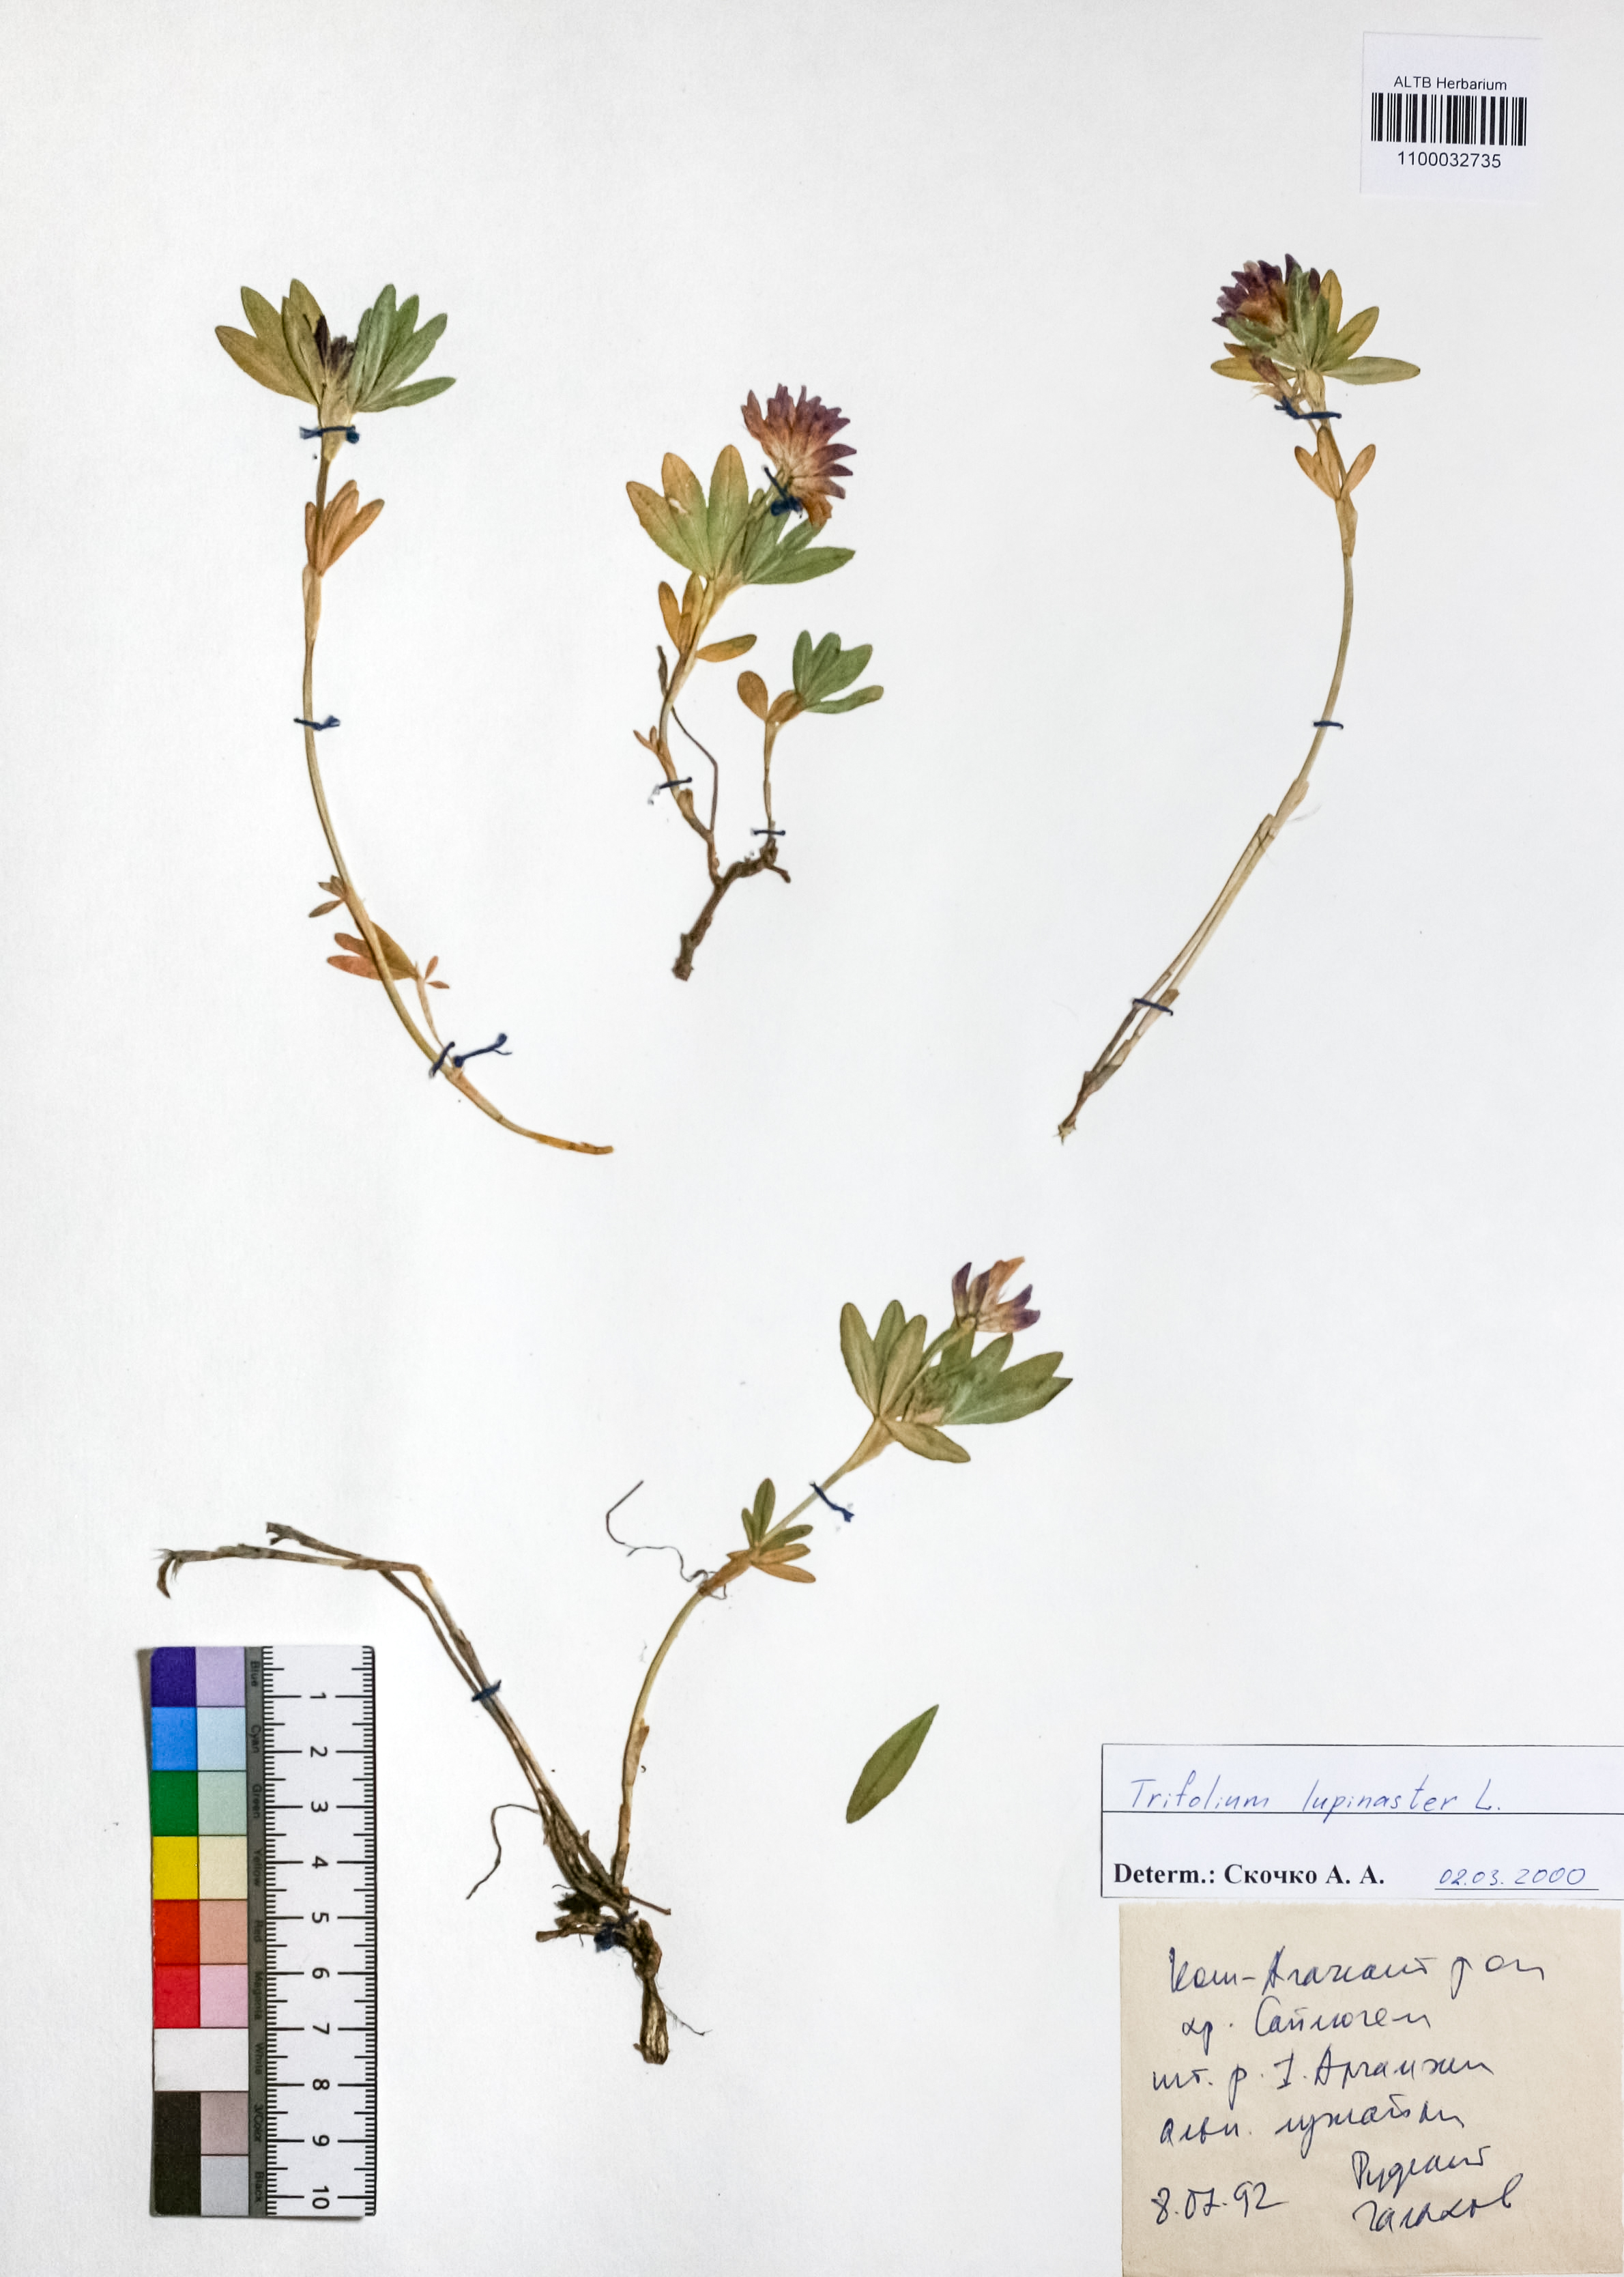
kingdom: Plantae
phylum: Tracheophyta
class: Magnoliopsida
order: Fabales
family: Fabaceae
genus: Trifolium
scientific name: Trifolium lupinaster
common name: Lupine clover
